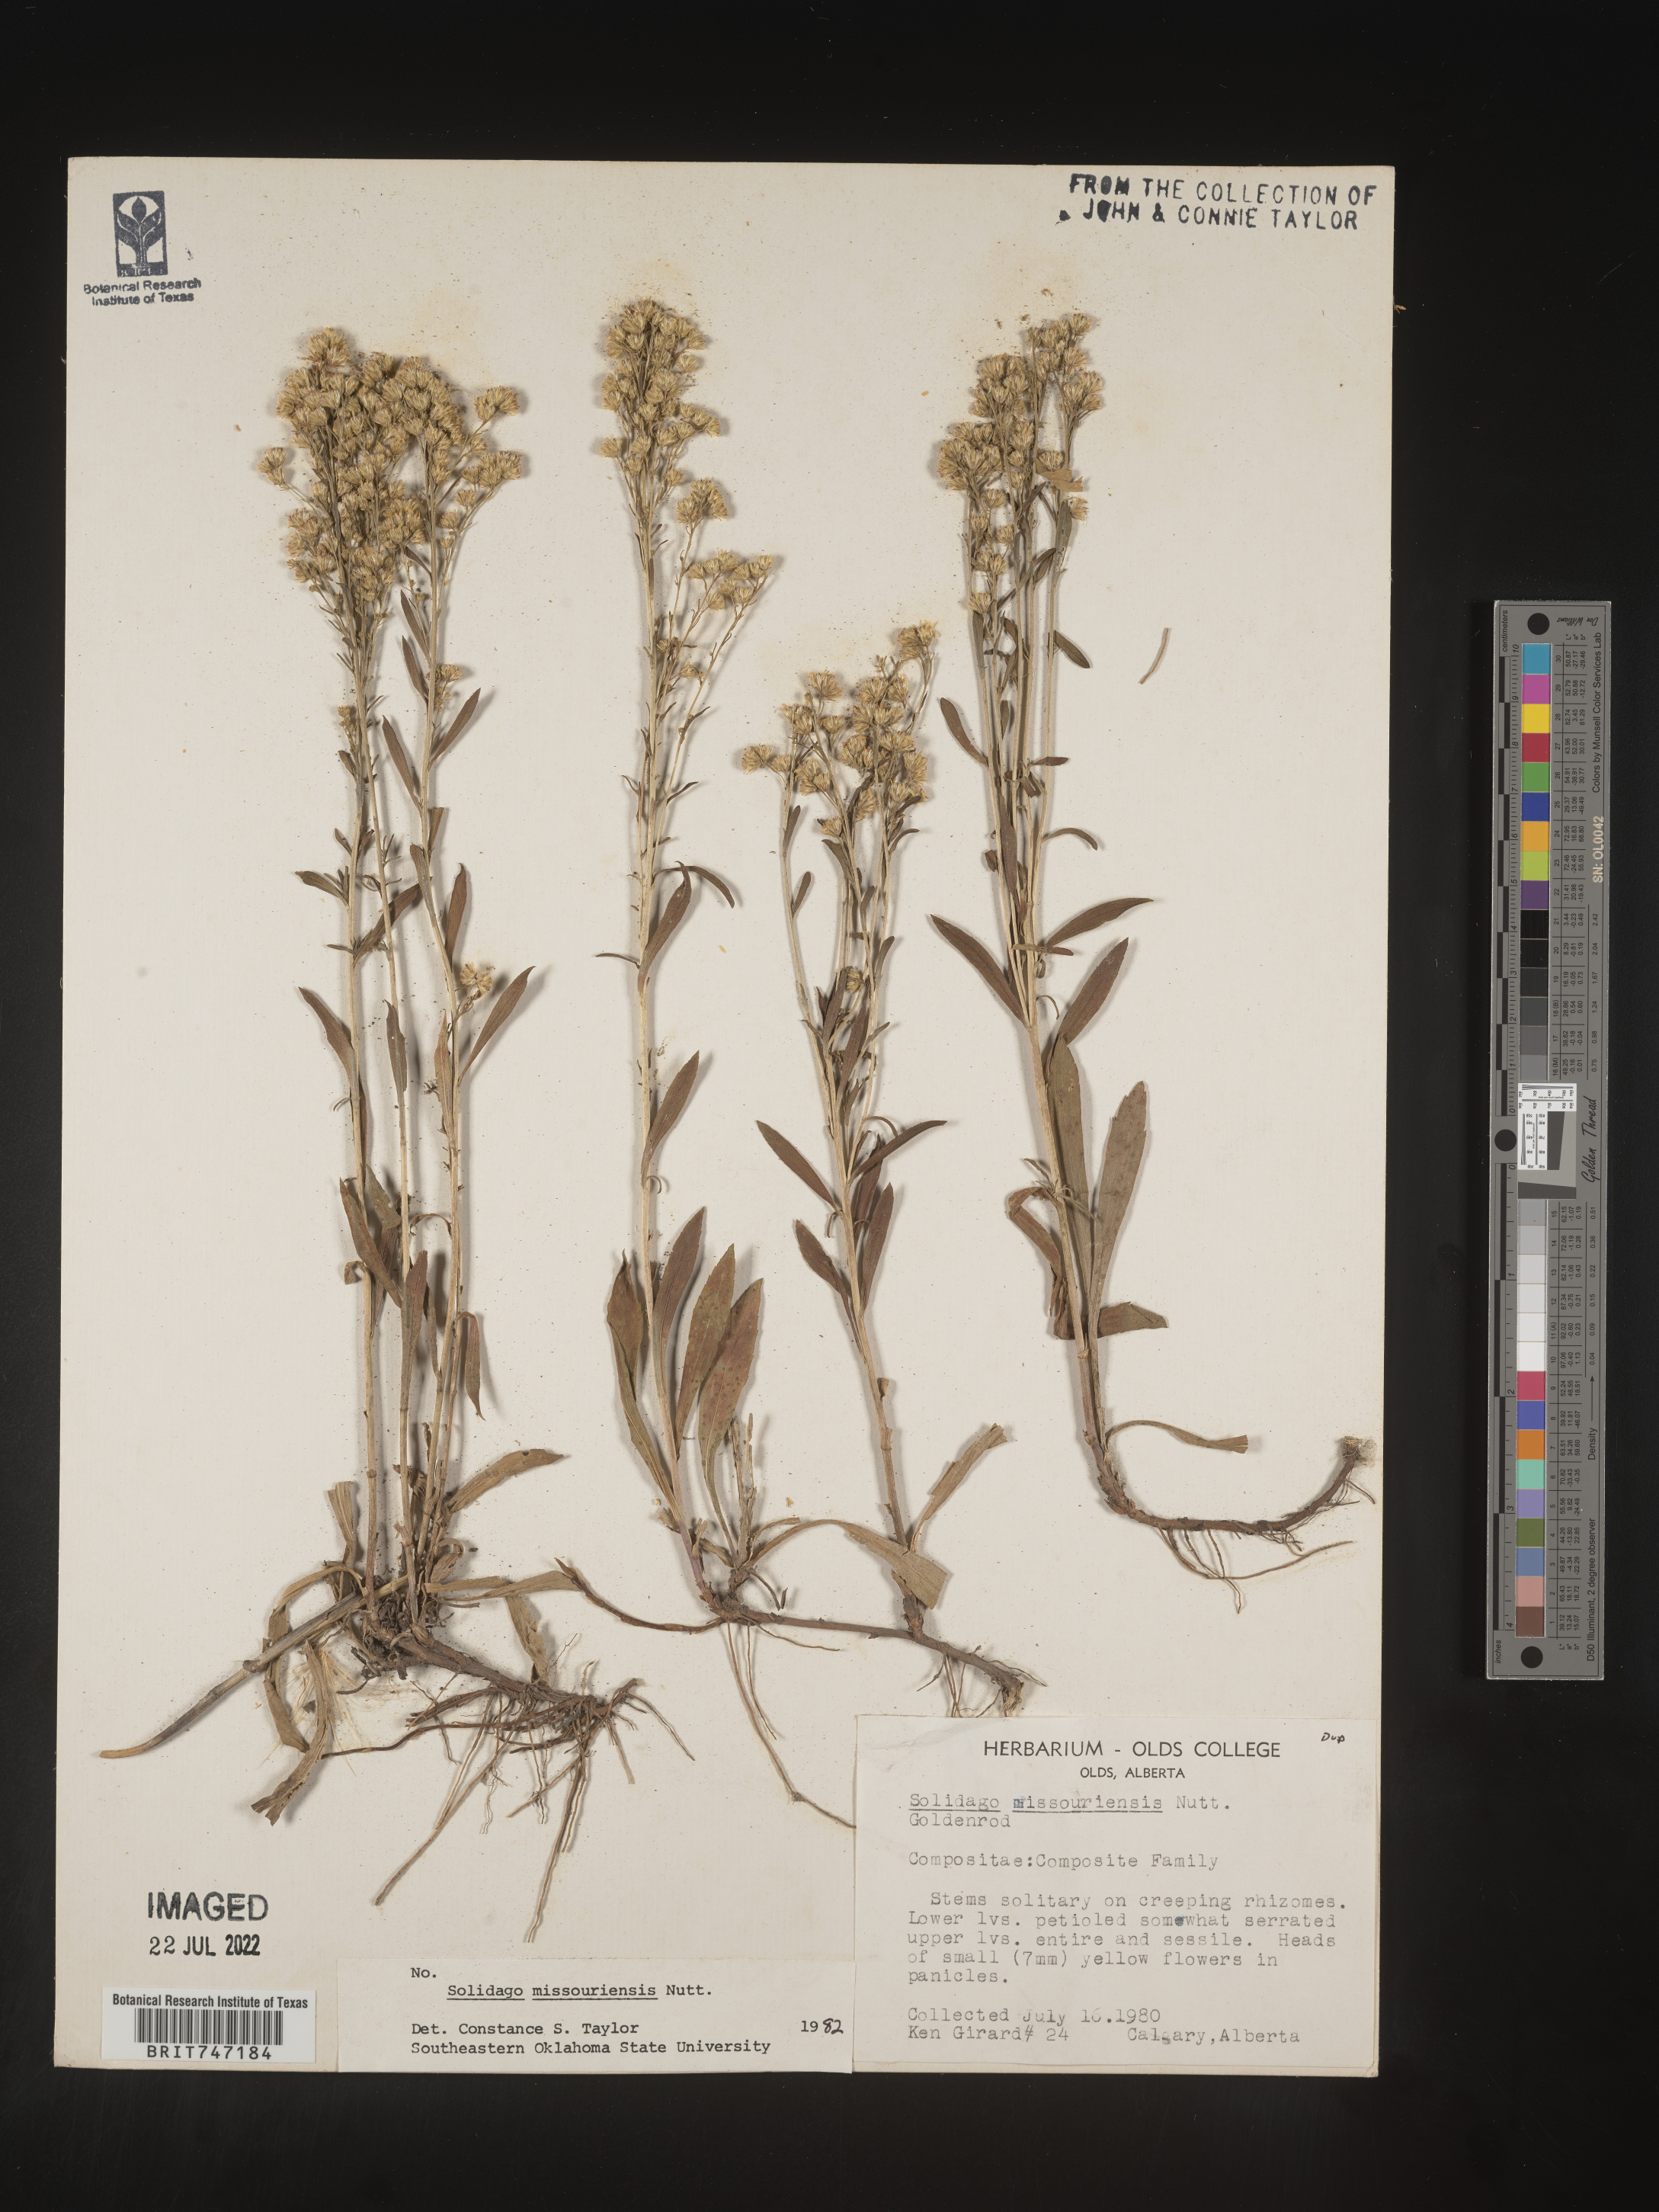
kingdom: Plantae
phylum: Tracheophyta
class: Magnoliopsida
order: Asterales
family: Asteraceae
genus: Solidago
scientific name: Solidago missouriensis
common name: Prairie goldenrod
